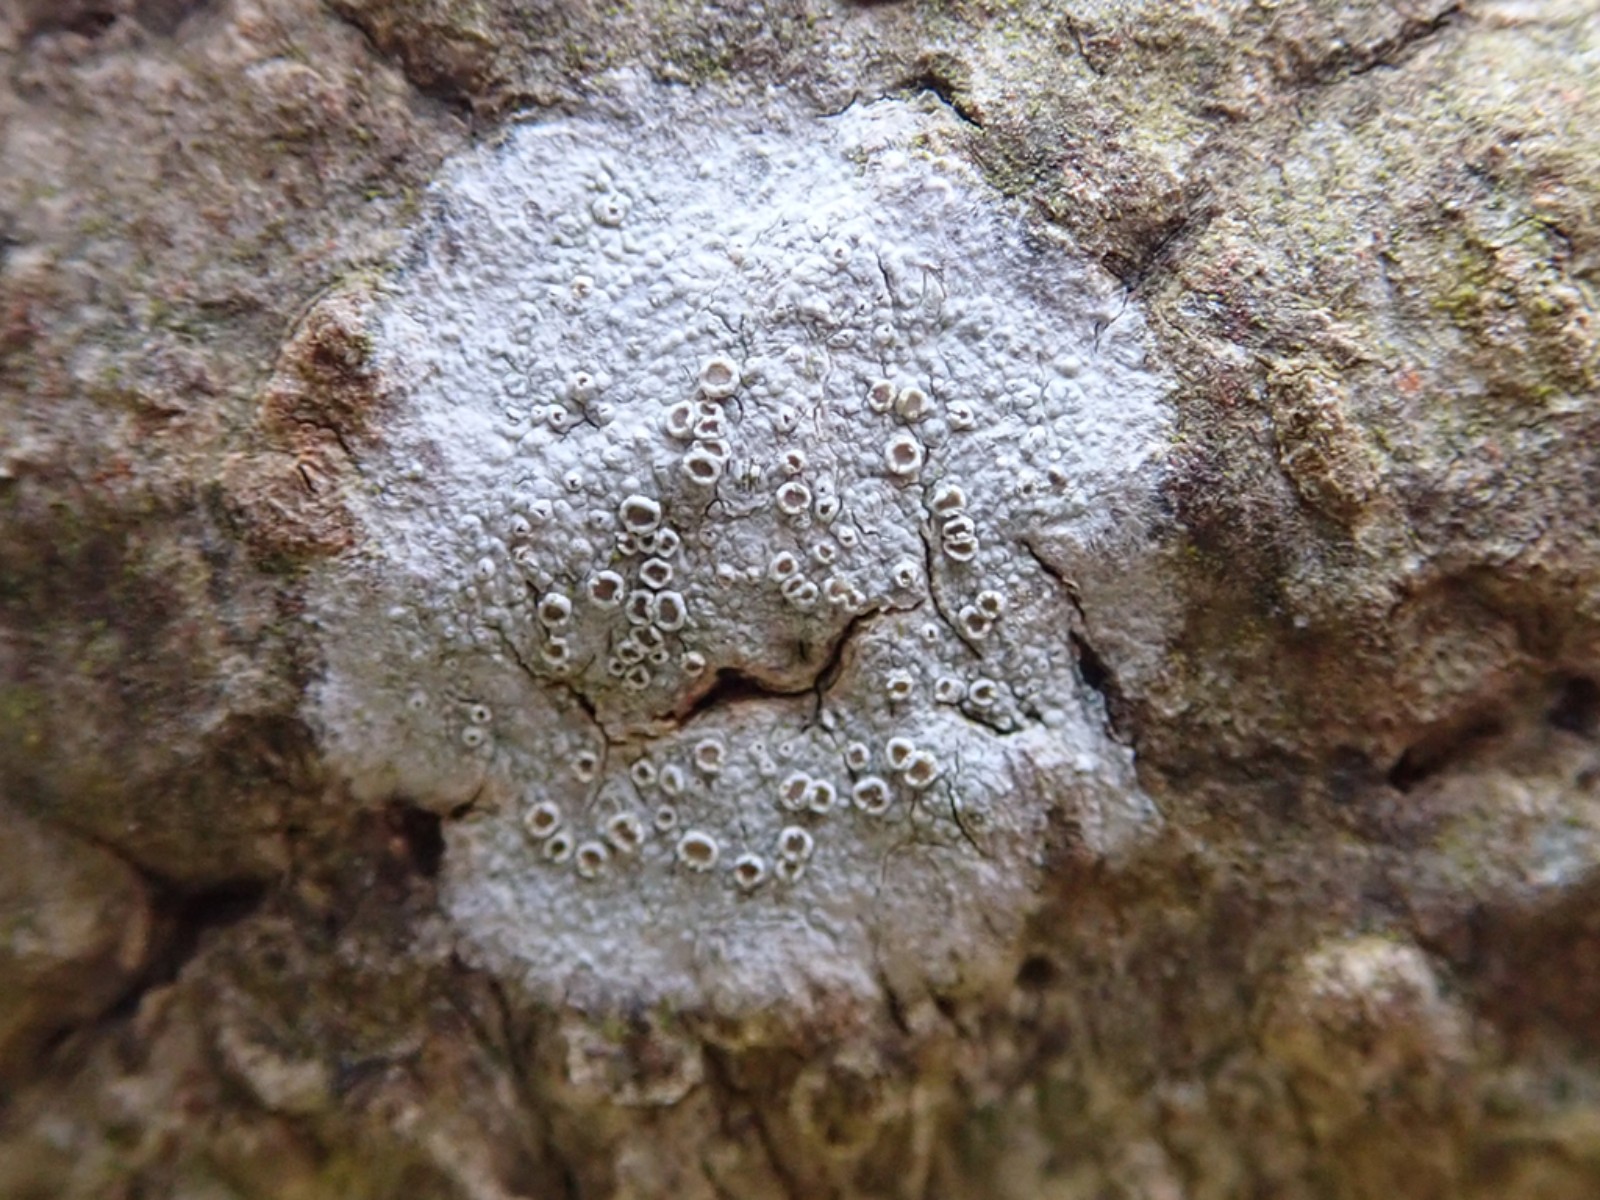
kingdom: Fungi
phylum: Ascomycota
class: Lecanoromycetes
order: Lecanorales
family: Lecanoraceae
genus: Lecanora
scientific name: Lecanora chlarotera
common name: brun kantskivelav
